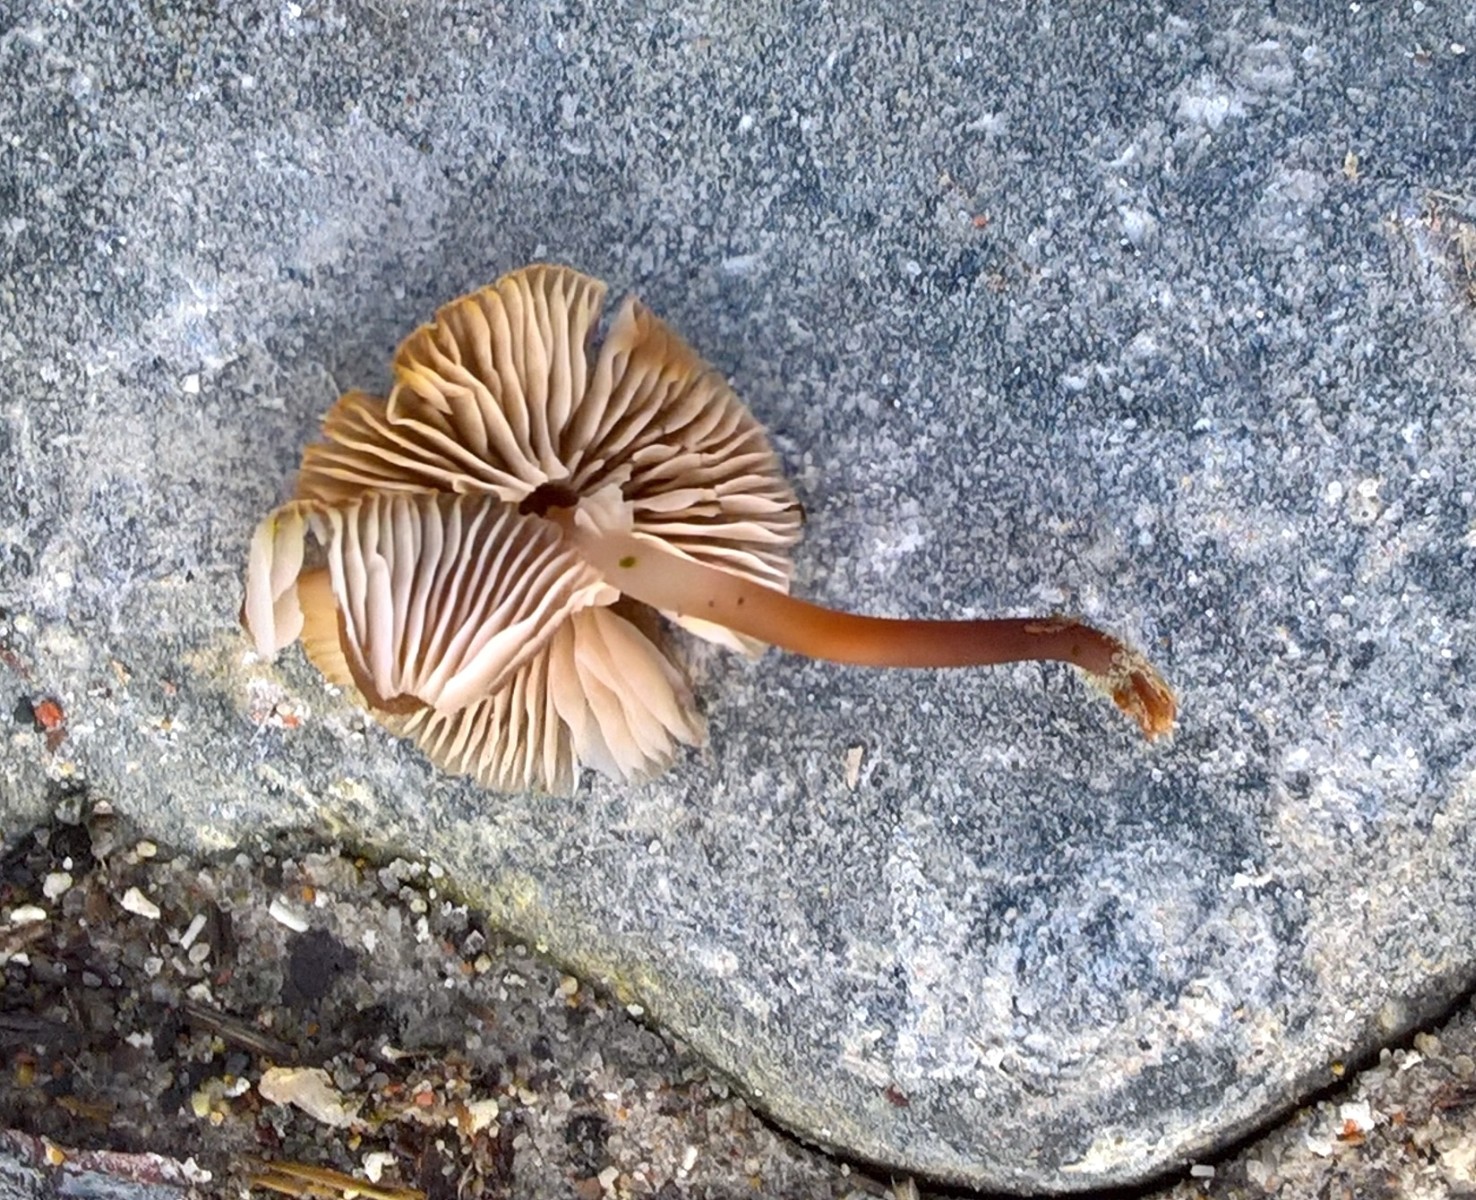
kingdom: Fungi
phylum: Basidiomycota
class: Agaricomycetes
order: Agaricales
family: Mycenaceae
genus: Mycena
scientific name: Mycena tintinnabulum
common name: vinter-huesvamp
